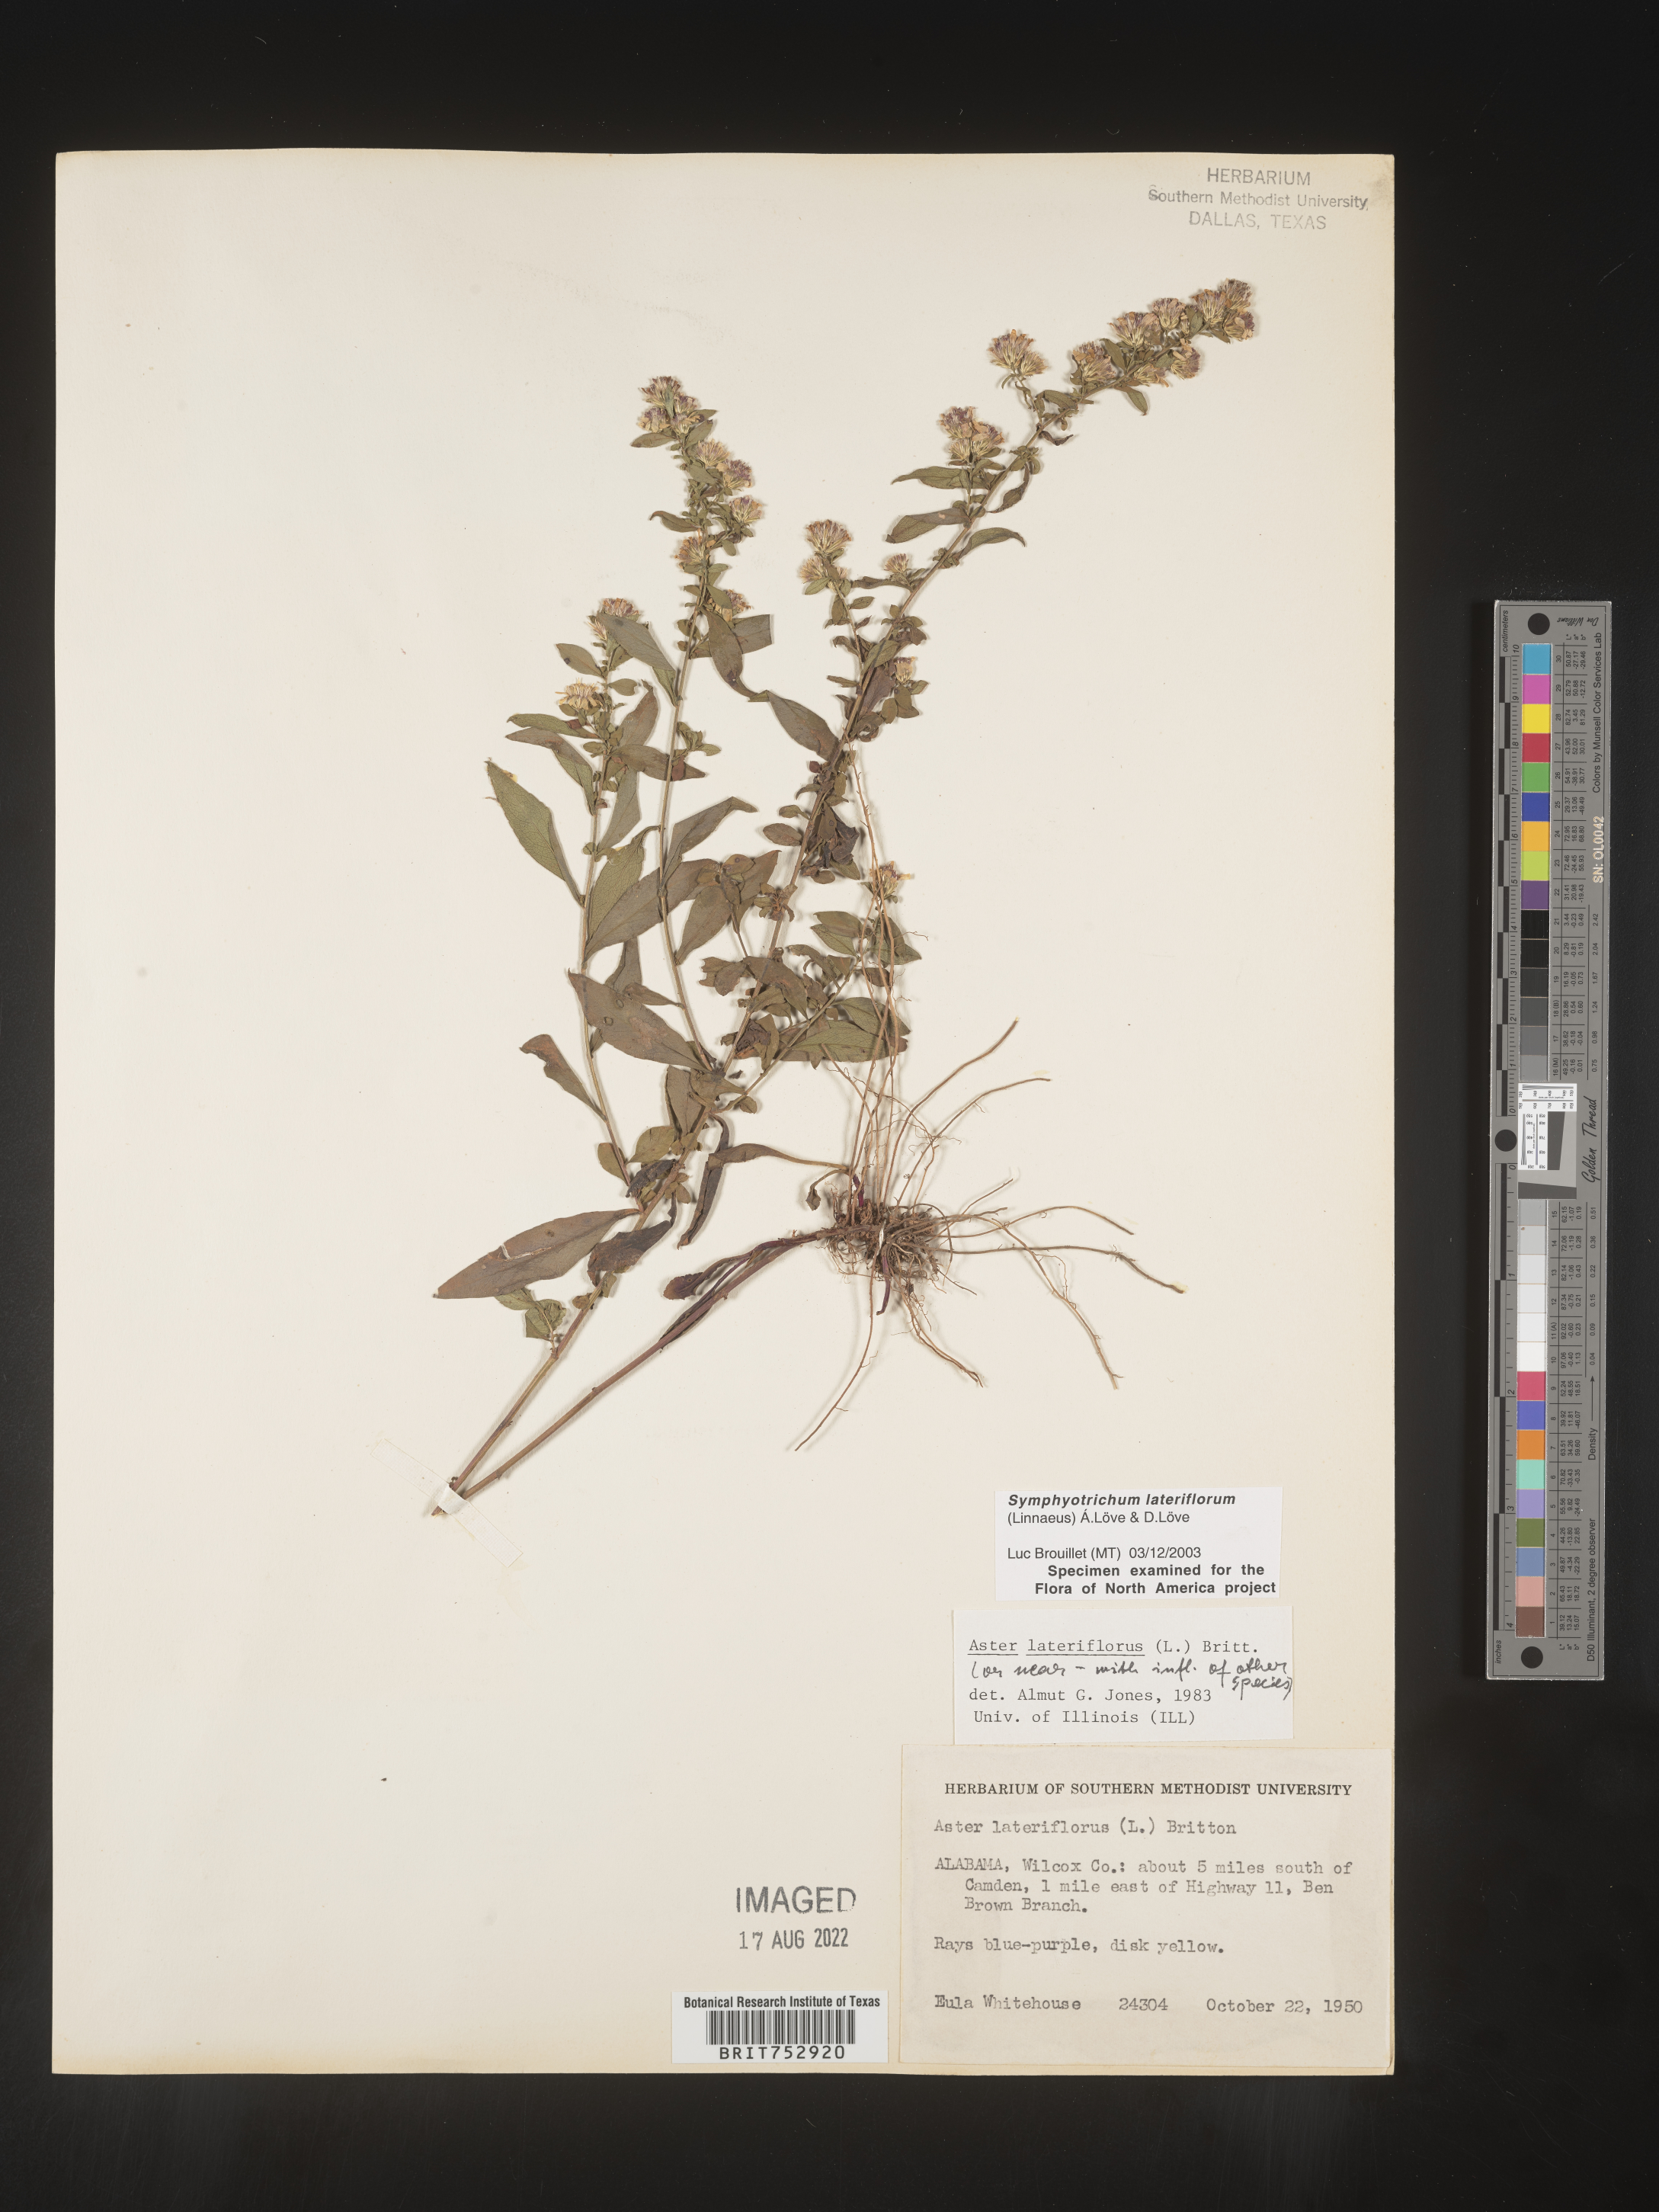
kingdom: Plantae
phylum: Tracheophyta
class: Magnoliopsida
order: Asterales
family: Asteraceae
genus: Symphyotrichum
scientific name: Symphyotrichum lateriflorum
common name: Calico aster
